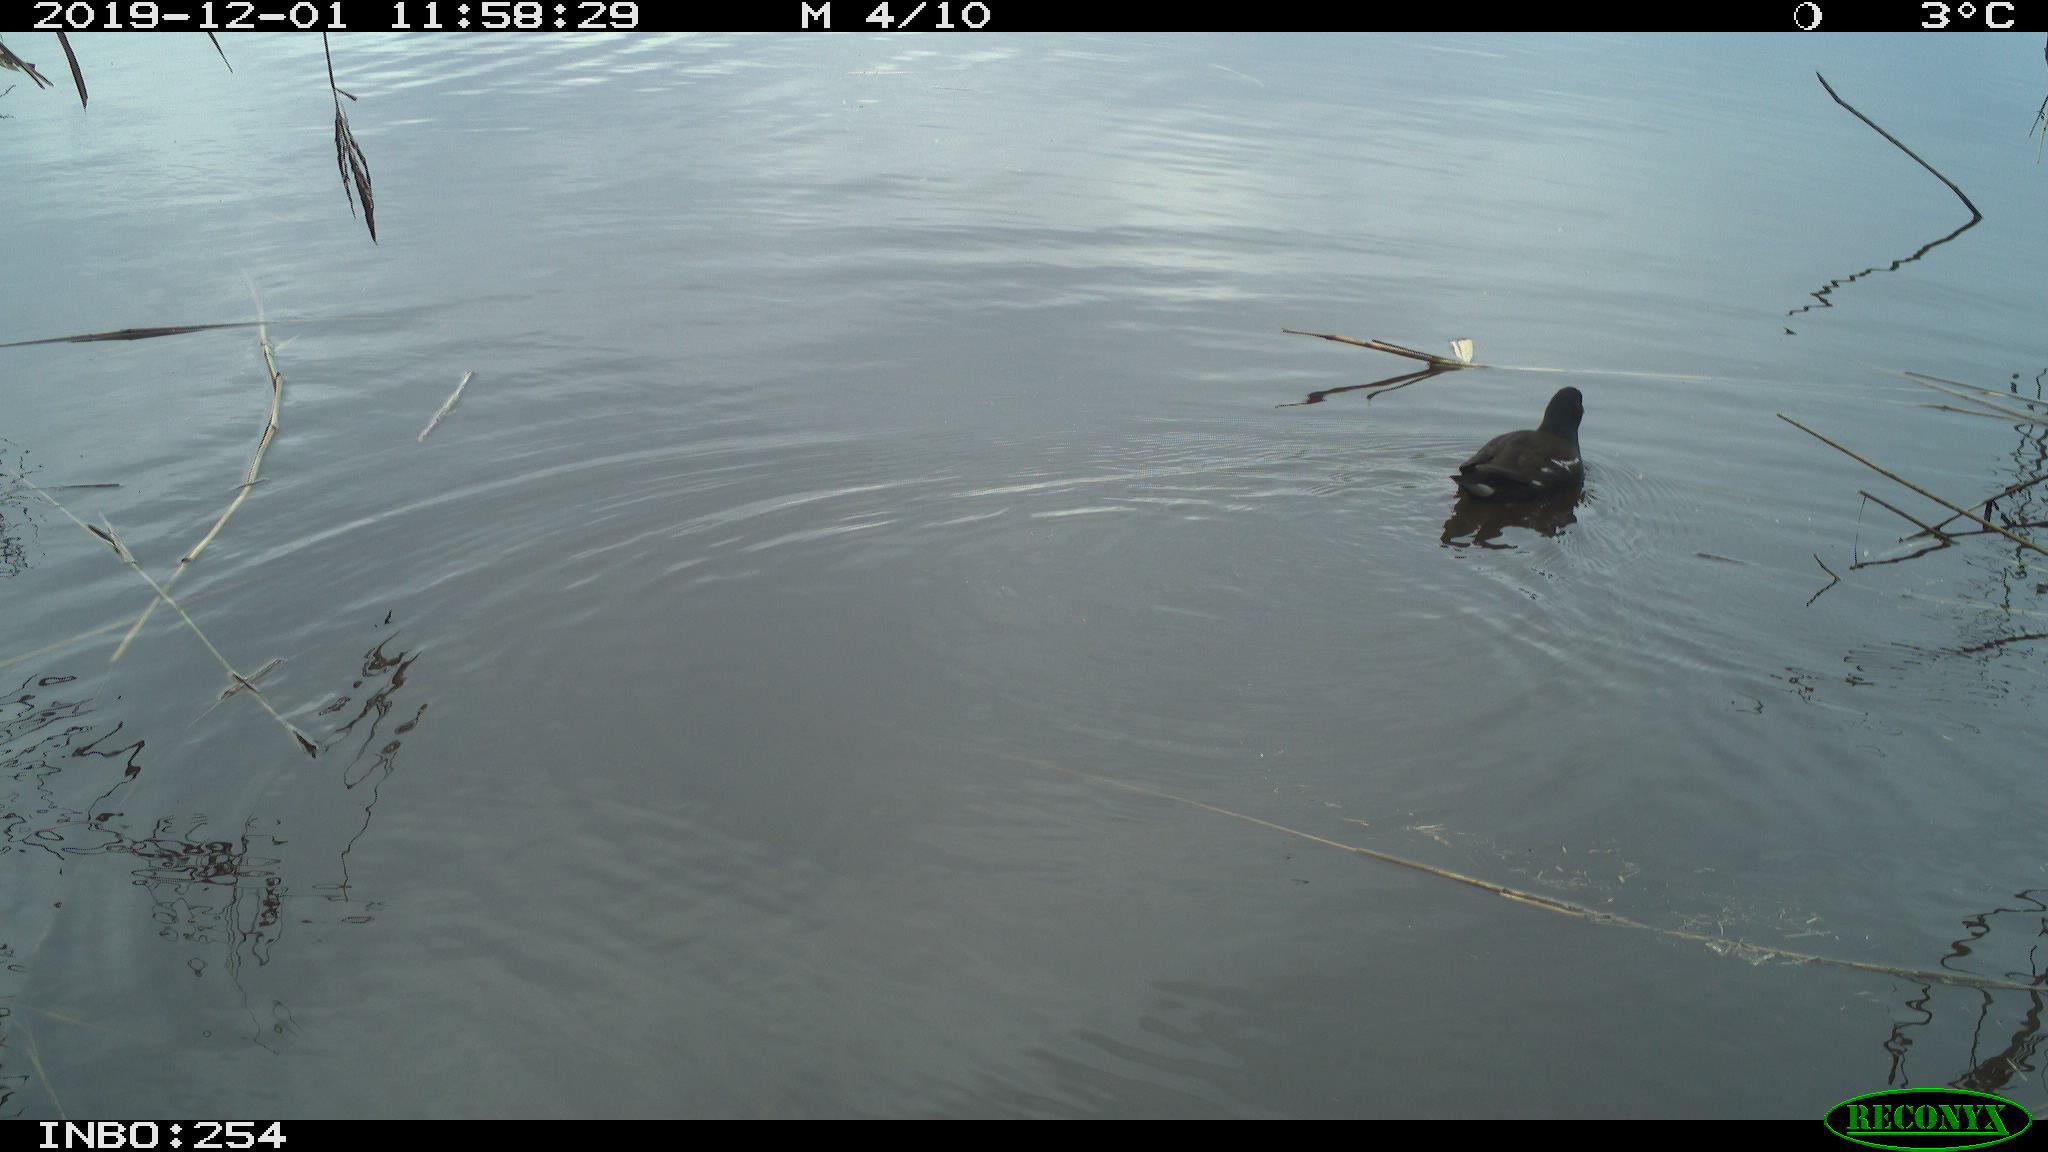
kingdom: Animalia
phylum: Chordata
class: Aves
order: Gruiformes
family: Rallidae
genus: Gallinula
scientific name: Gallinula chloropus
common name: Common moorhen
